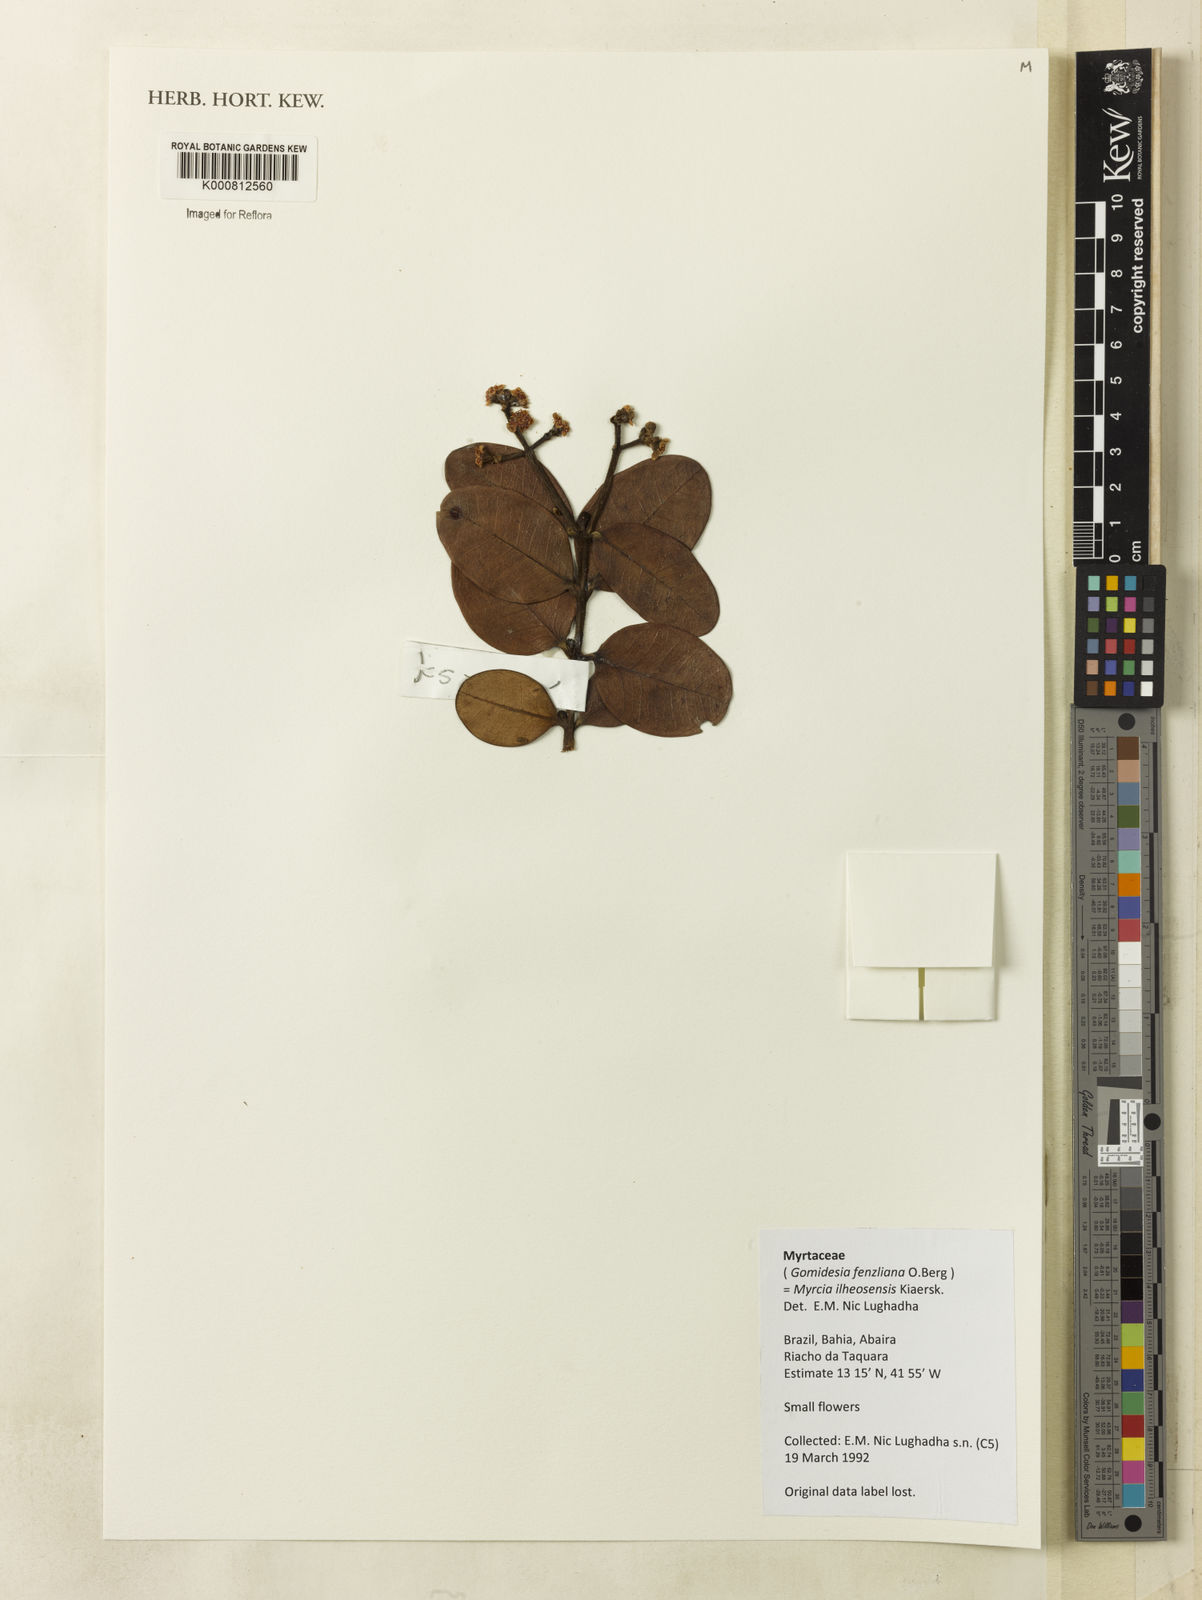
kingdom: Plantae
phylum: Tracheophyta
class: Magnoliopsida
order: Myrtales
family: Myrtaceae
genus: Myrcia
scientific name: Myrcia ilheosensis
